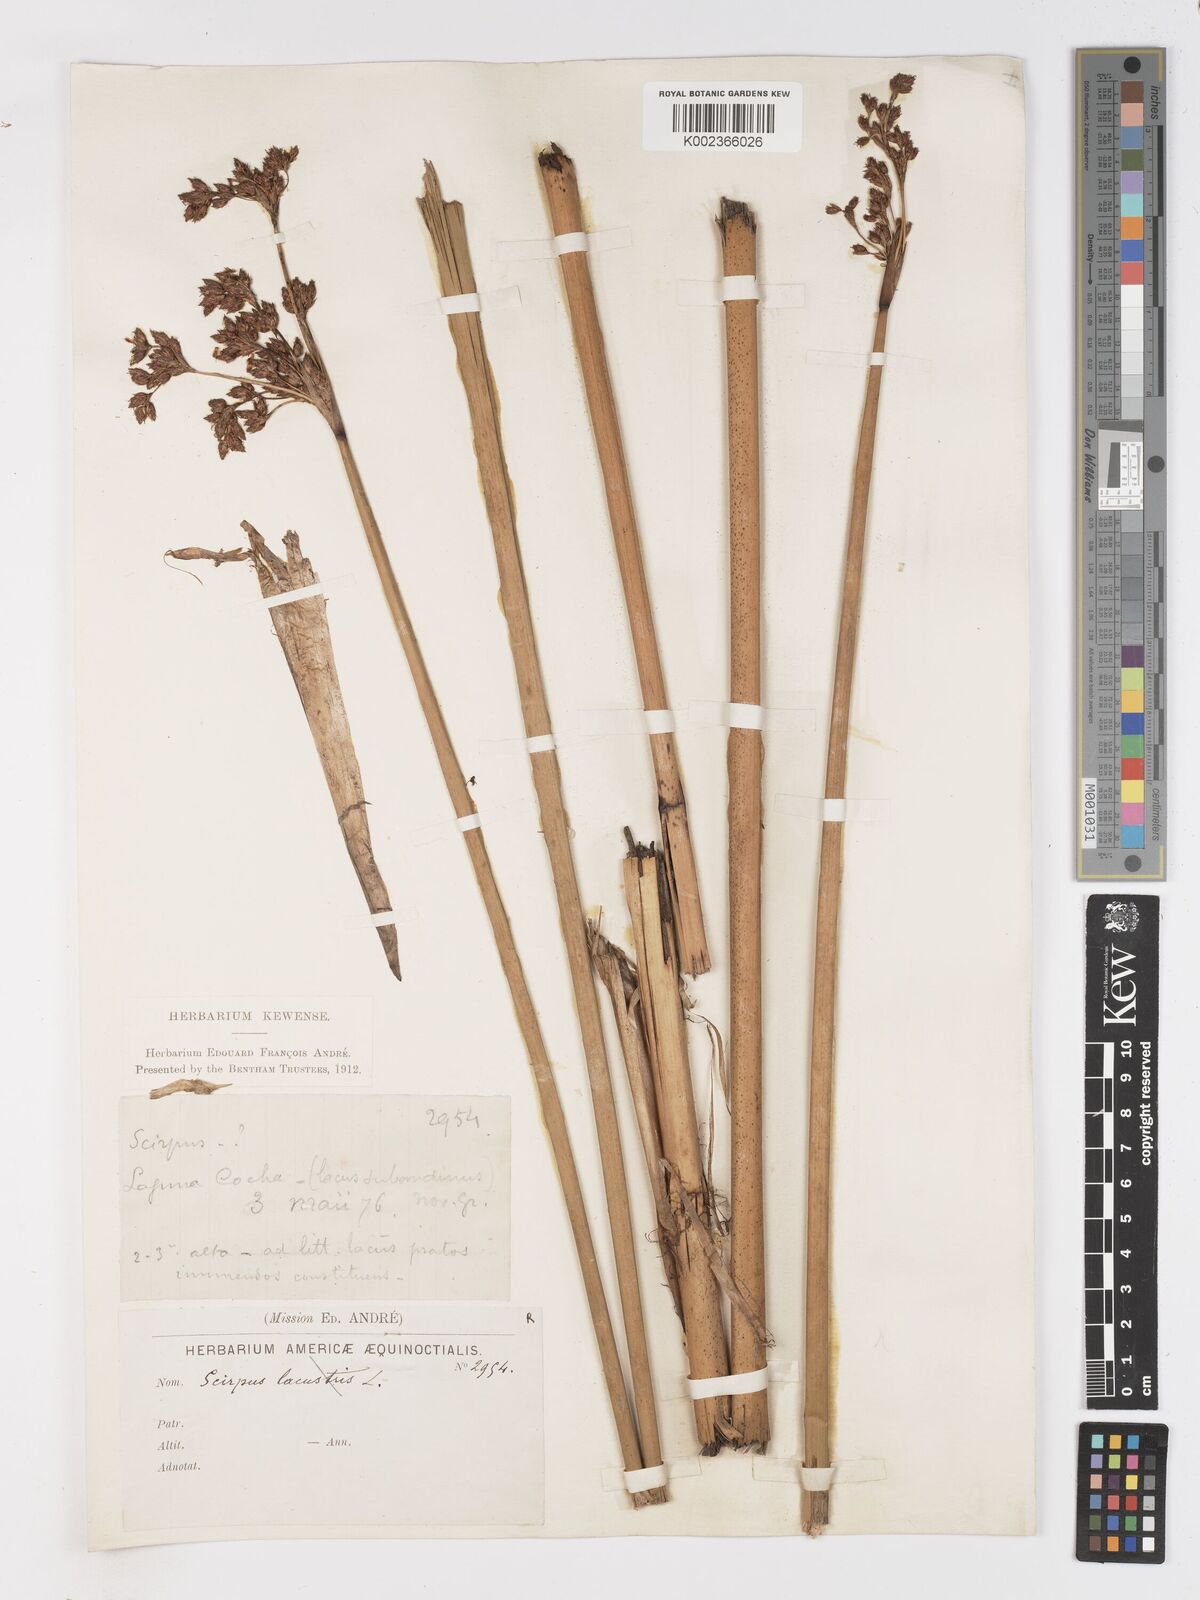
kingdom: Plantae
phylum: Tracheophyta
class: Liliopsida
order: Poales
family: Cyperaceae
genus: Schoenoplectus
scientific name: Schoenoplectus
